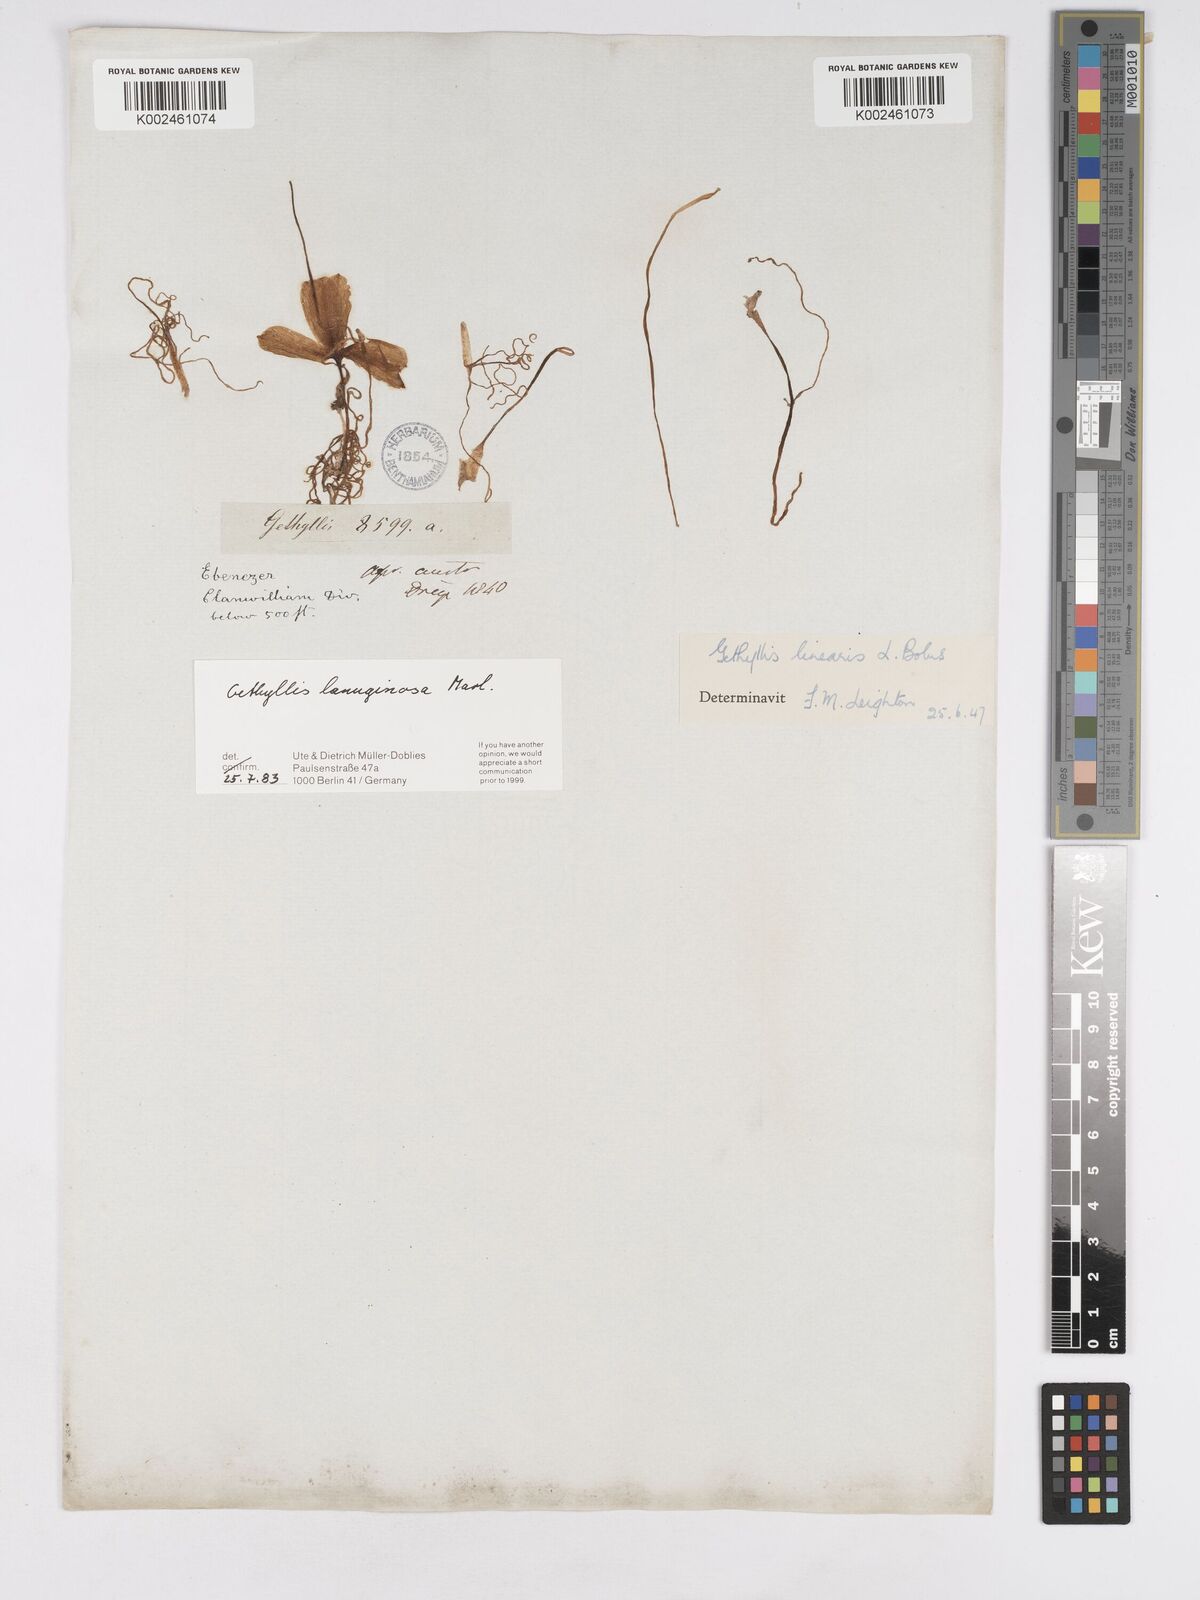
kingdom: Plantae
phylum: Tracheophyta
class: Liliopsida
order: Asparagales
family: Amaryllidaceae
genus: Gethyllis
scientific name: Gethyllis lanuginosa
